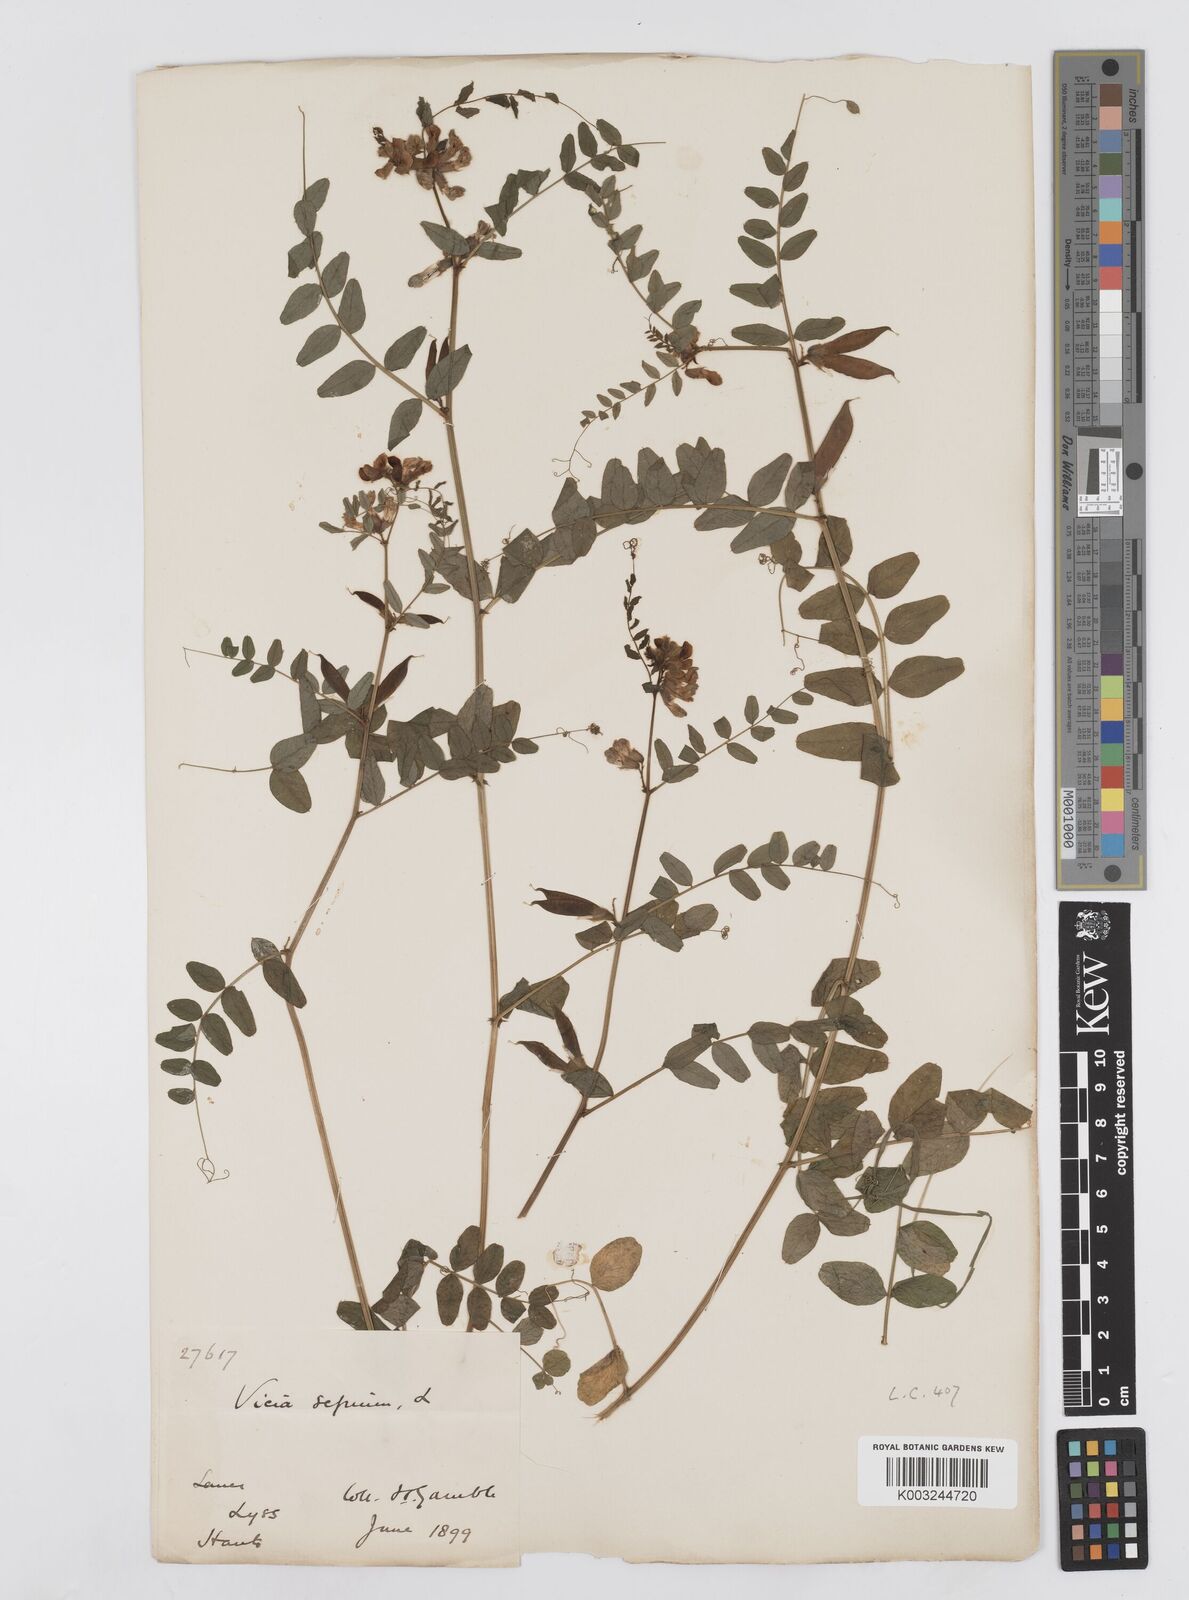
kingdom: Plantae
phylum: Tracheophyta
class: Magnoliopsida
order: Fabales
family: Fabaceae
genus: Vicia
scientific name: Vicia sepium
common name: Bush vetch
